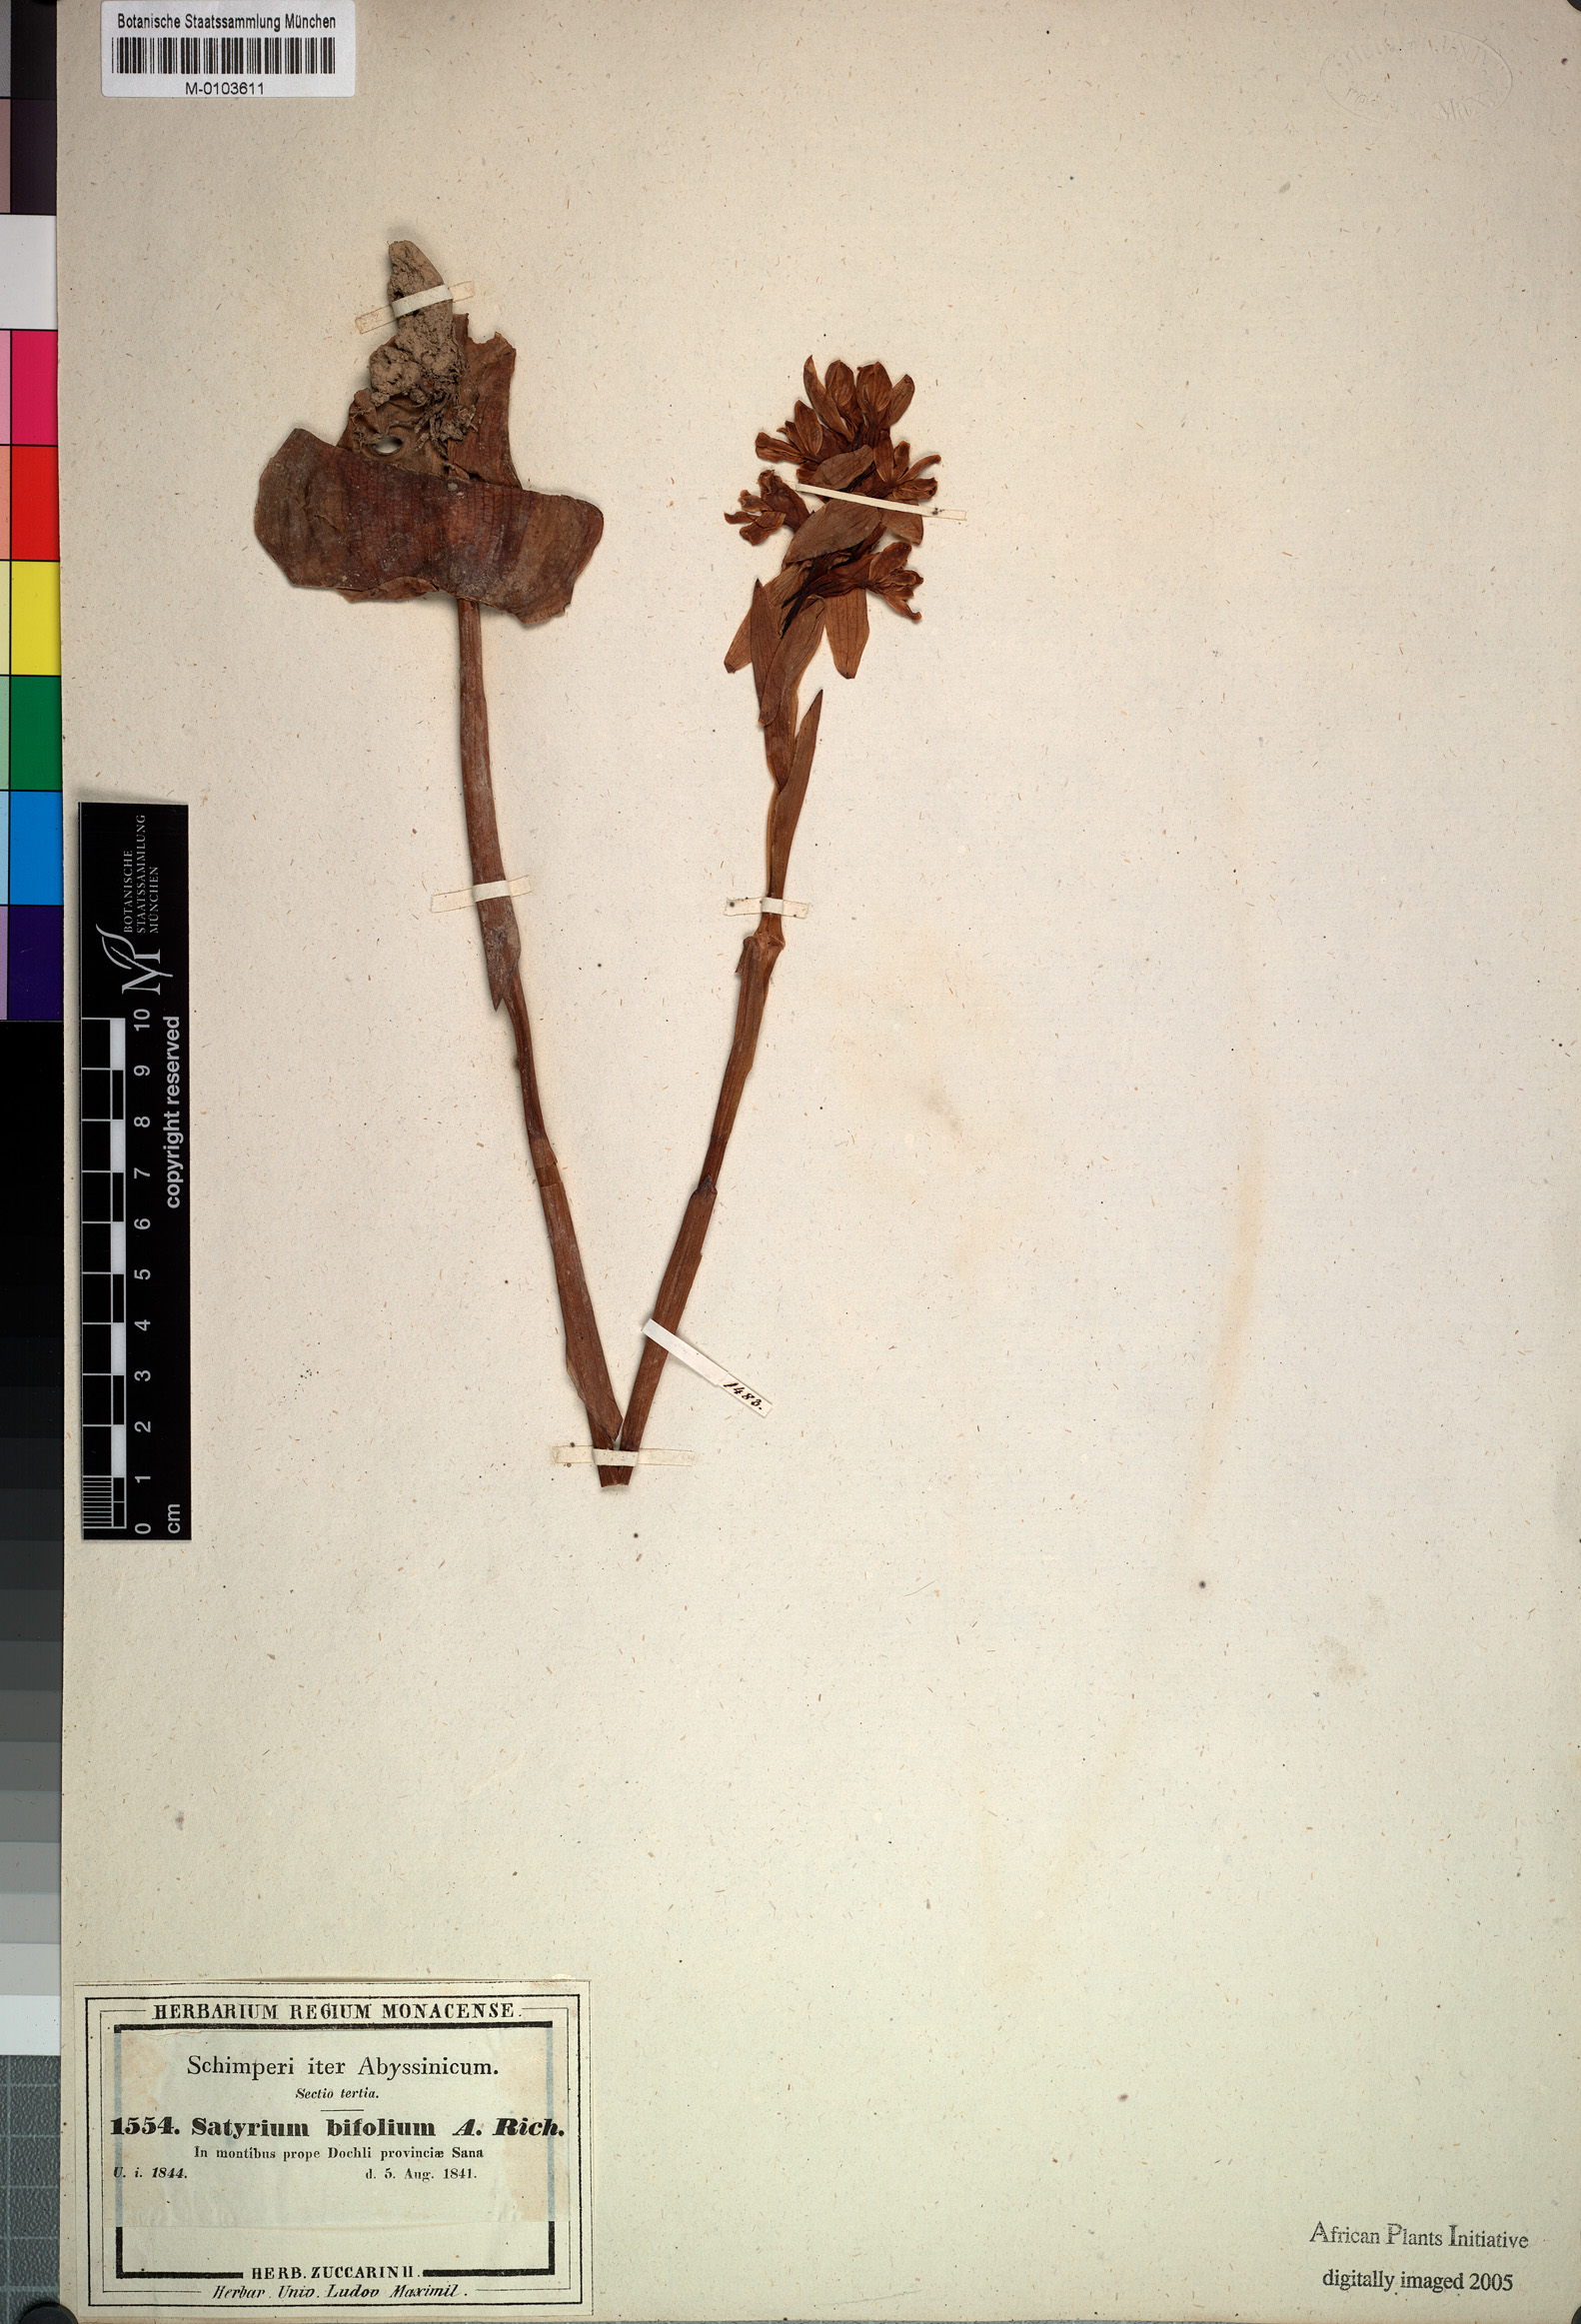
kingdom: Plantae
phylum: Tracheophyta
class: Liliopsida
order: Asparagales
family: Orchidaceae
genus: Satyrium
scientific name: Satyrium aethiopicum
